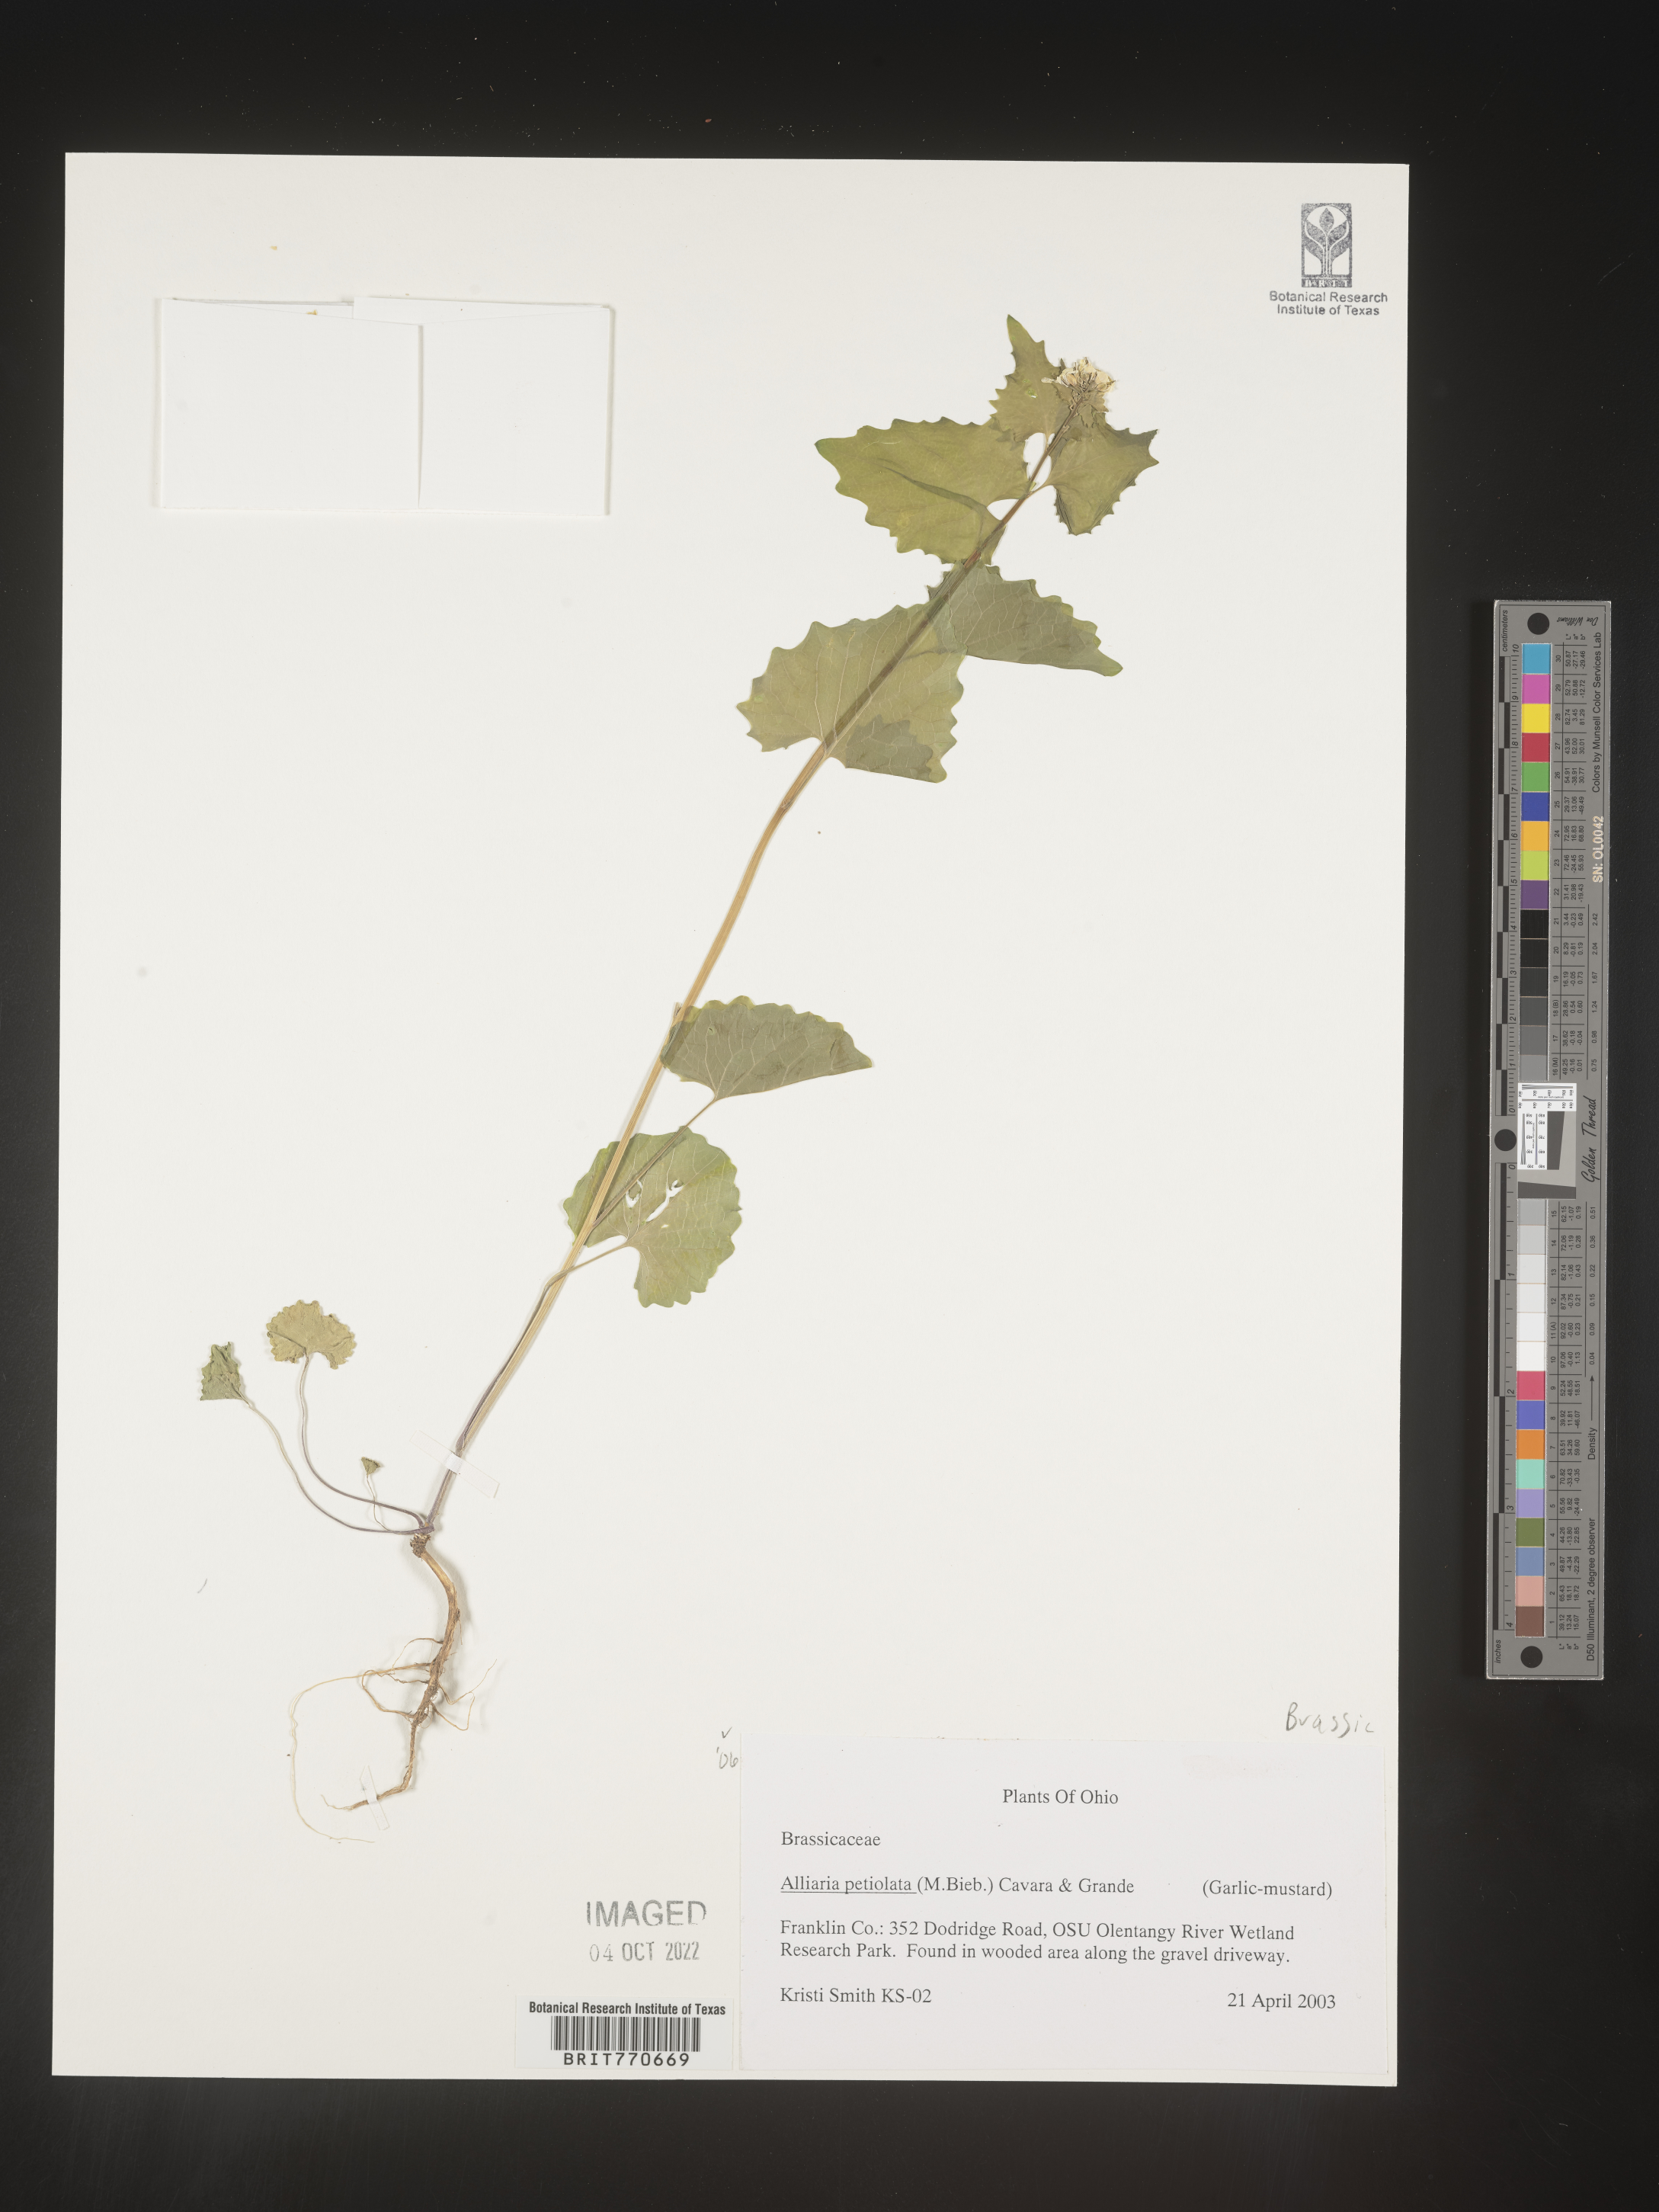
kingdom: Plantae
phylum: Tracheophyta
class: Magnoliopsida
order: Brassicales
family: Brassicaceae
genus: Alliaria
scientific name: Alliaria
